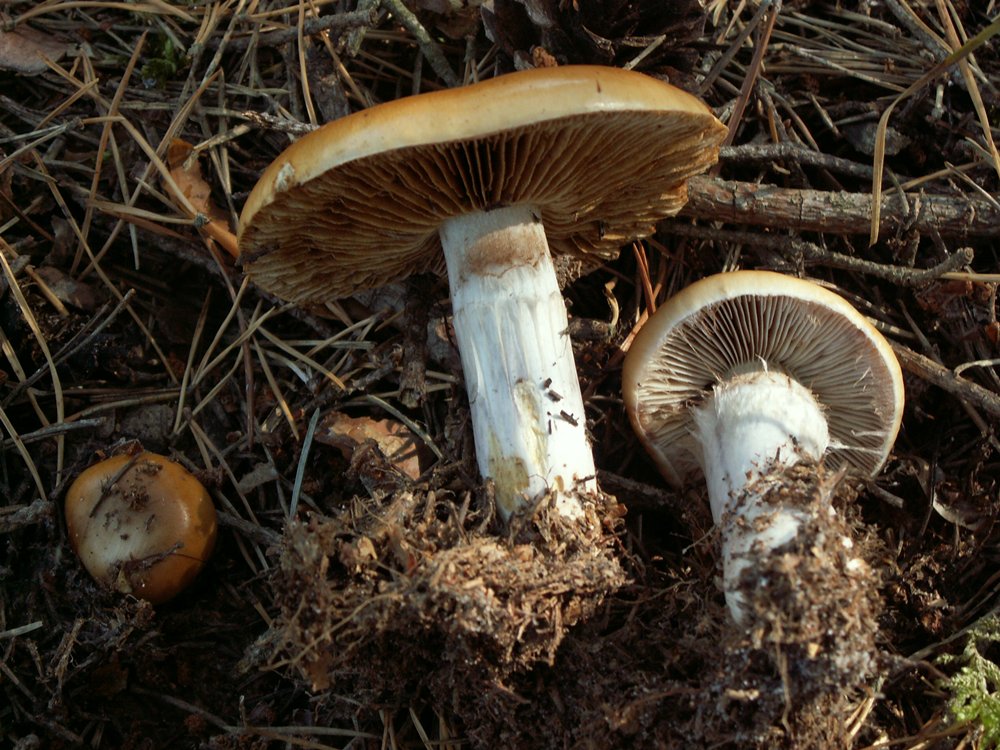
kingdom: Fungi
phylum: Basidiomycota
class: Agaricomycetes
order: Agaricales
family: Cortinariaceae
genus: Cortinarius
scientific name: Cortinarius mucosus
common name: kastaniebrun slørhat
